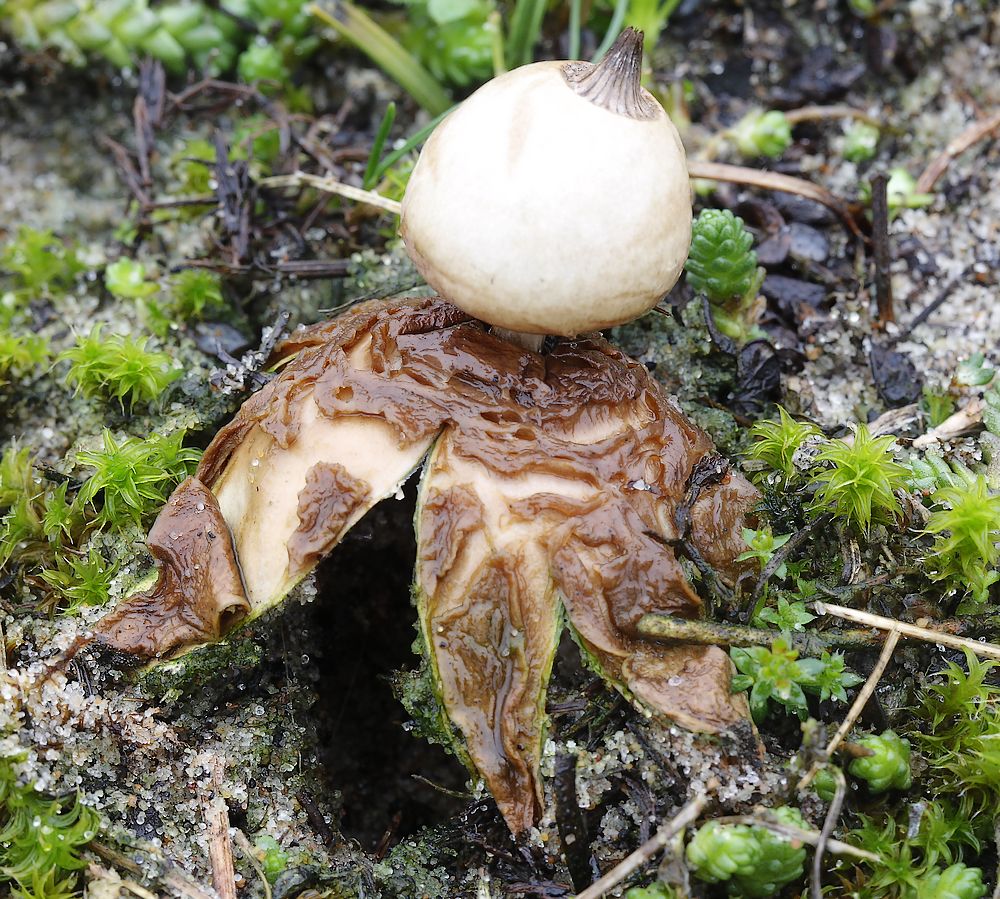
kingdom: Fungi
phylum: Basidiomycota
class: Agaricomycetes
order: Geastrales
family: Geastraceae
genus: Geastrum
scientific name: Geastrum striatum
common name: dværg-stjernebold
